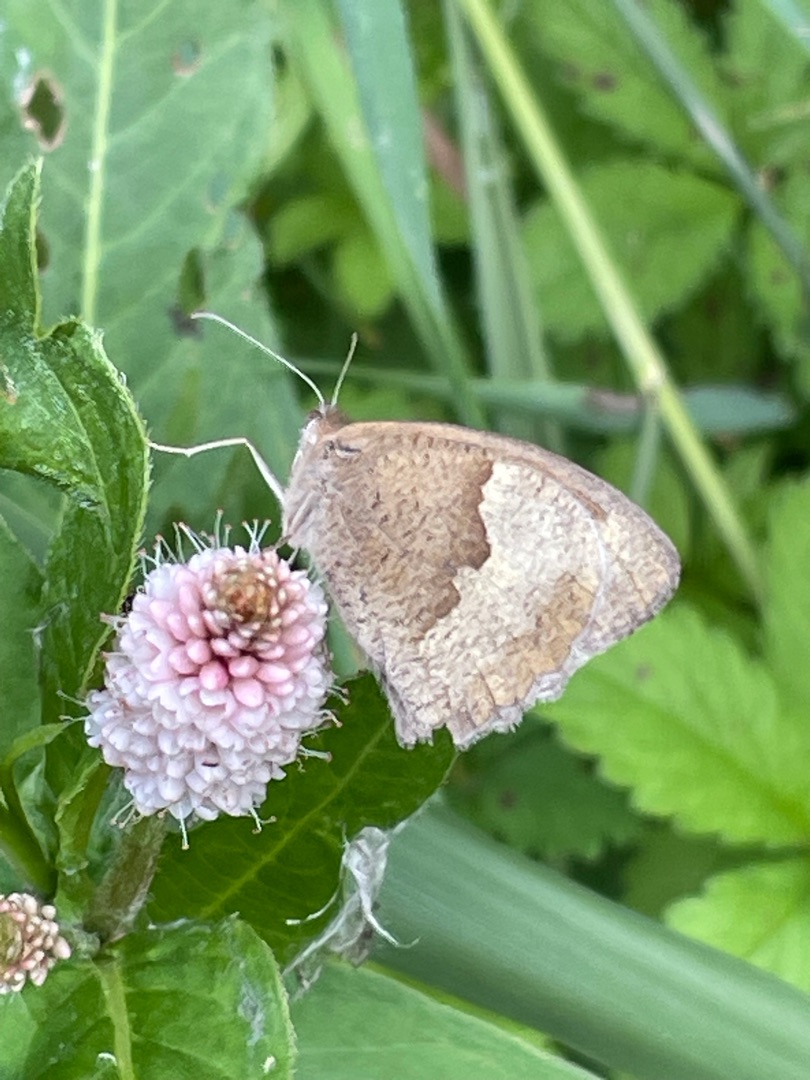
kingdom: Animalia
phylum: Arthropoda
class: Insecta
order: Lepidoptera
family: Nymphalidae
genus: Maniola
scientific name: Maniola jurtina
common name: Græsrandøje
